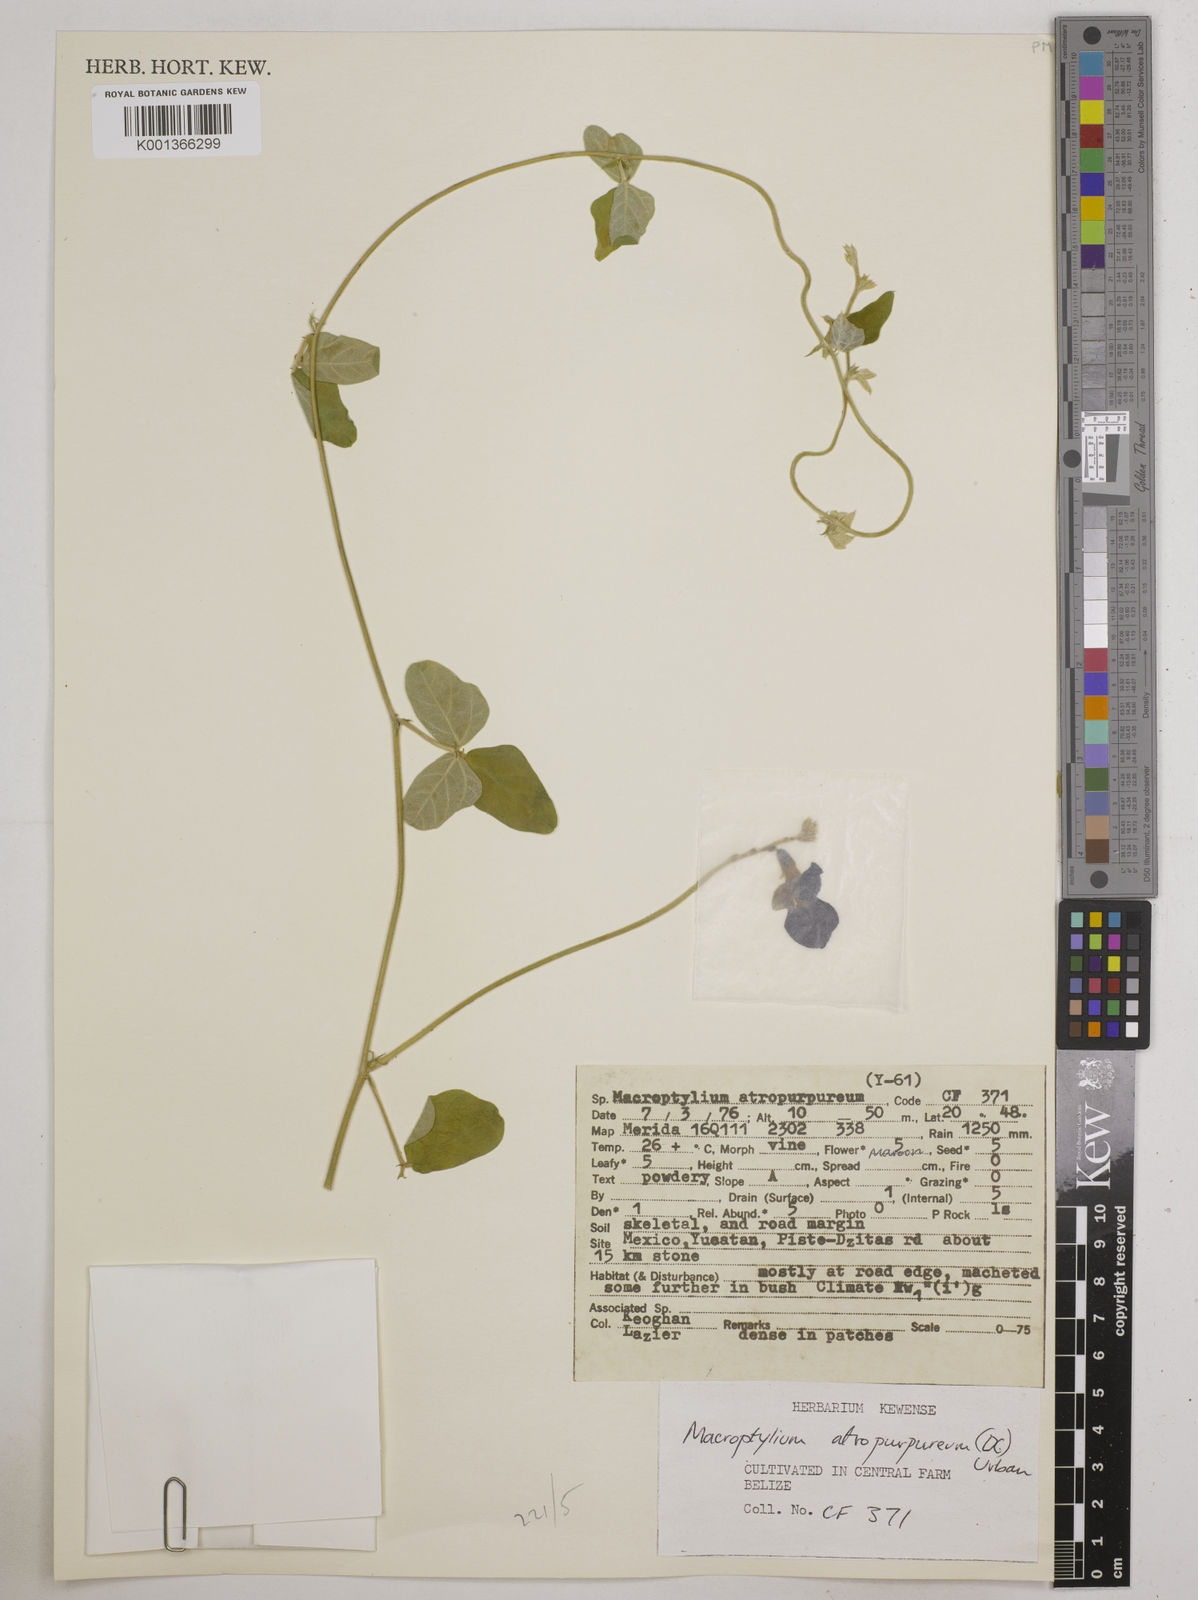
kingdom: Plantae
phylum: Tracheophyta
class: Magnoliopsida
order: Fabales
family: Fabaceae
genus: Macroptilium
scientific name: Macroptilium atropurpureum
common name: Purple bushbean
